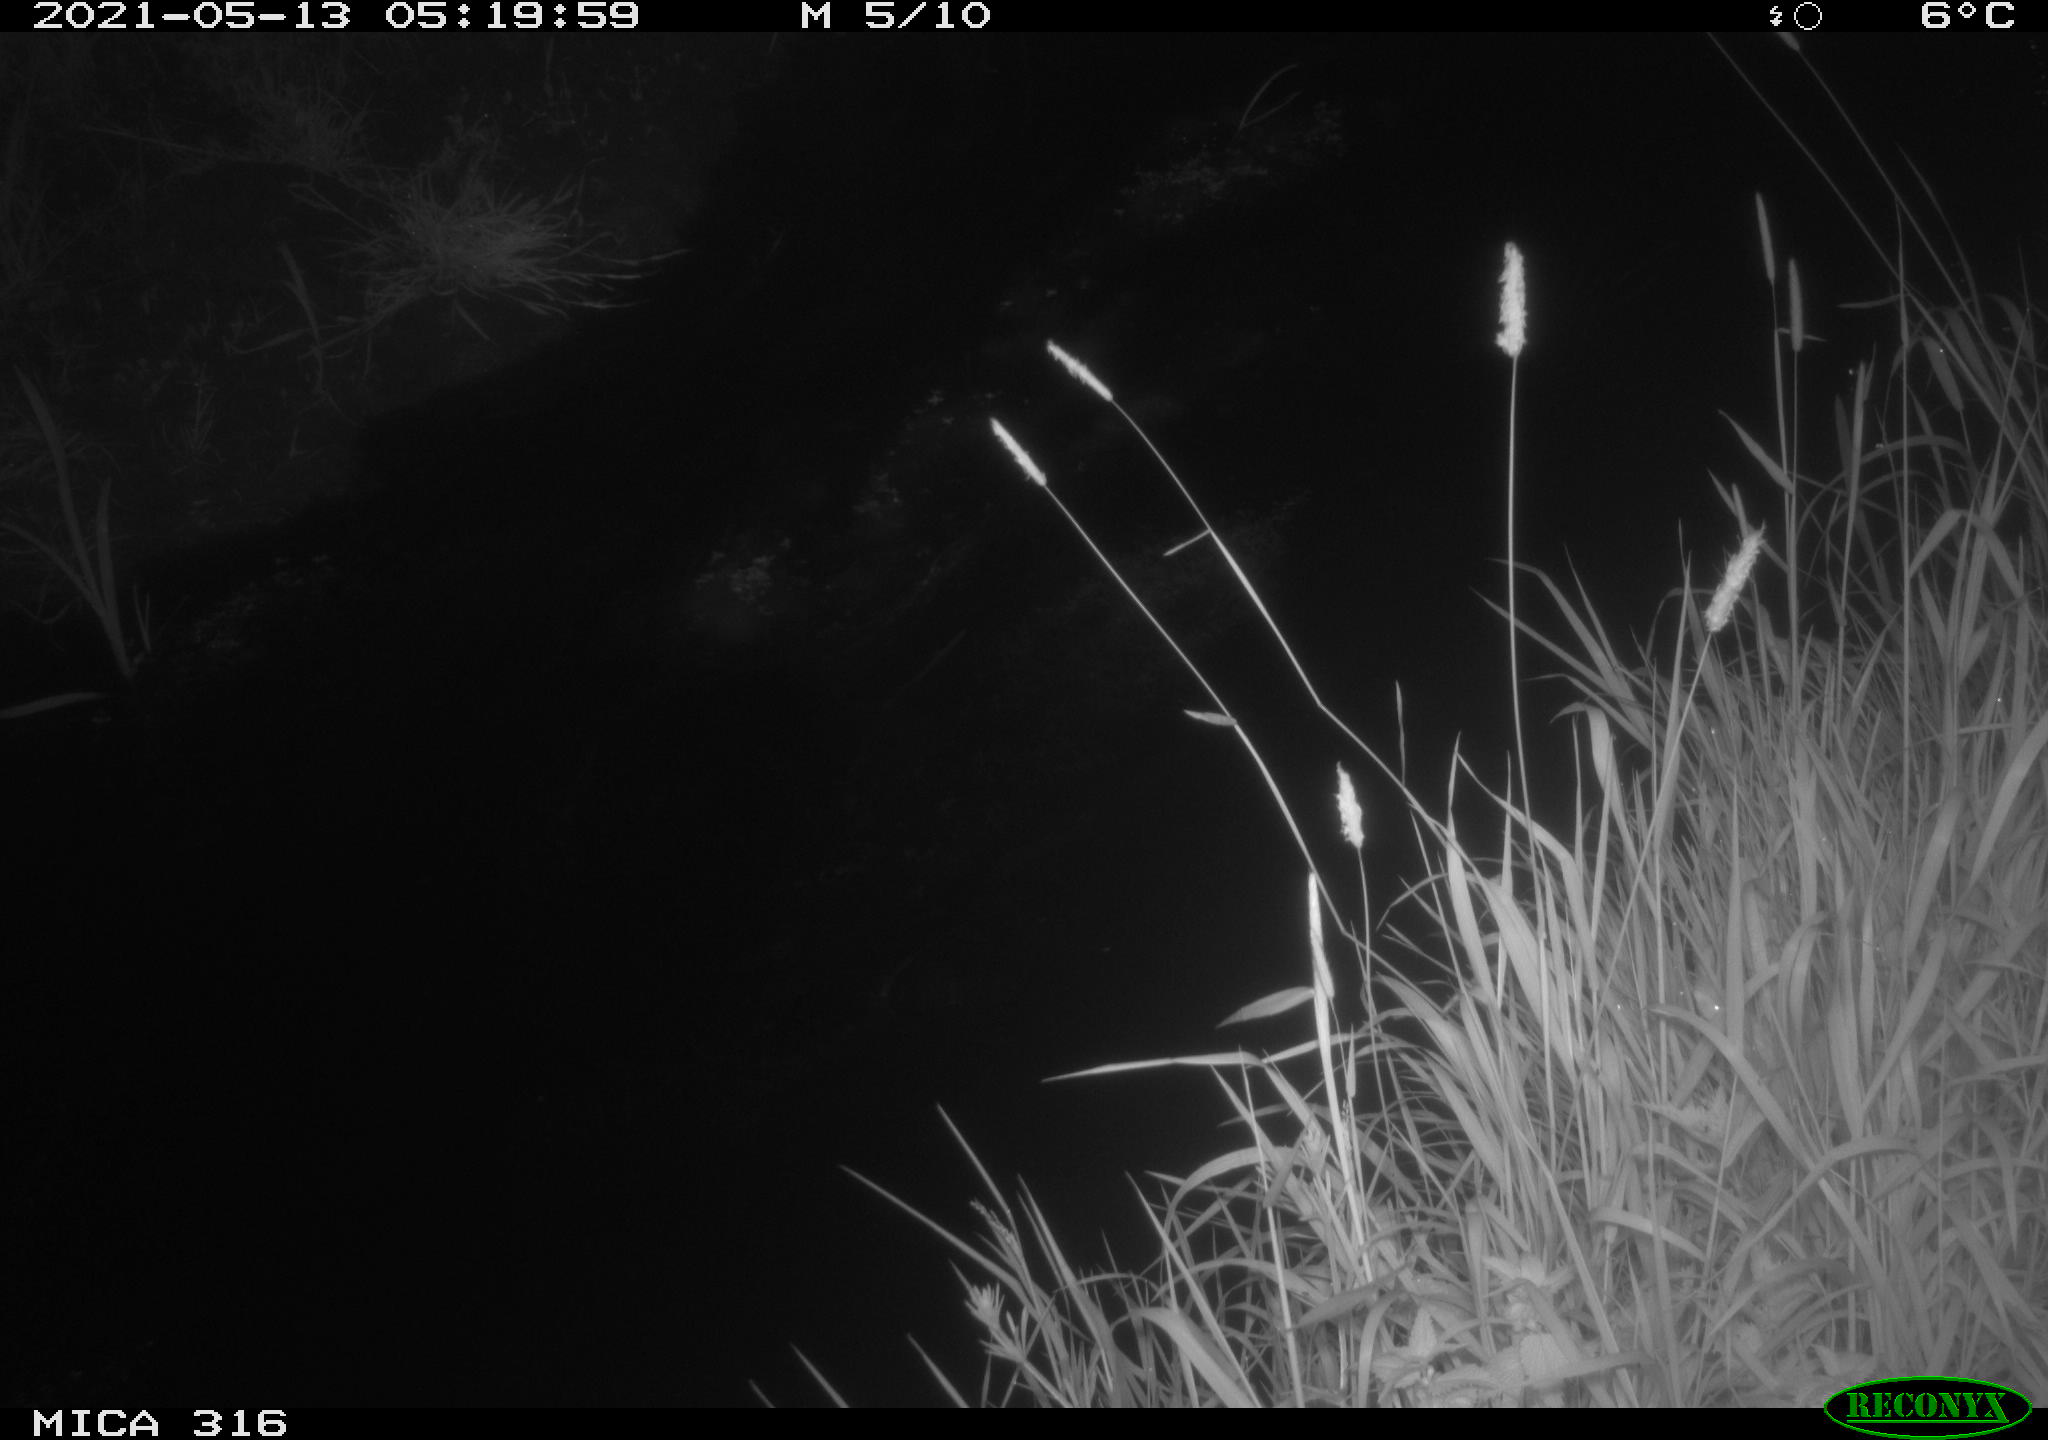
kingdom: Animalia
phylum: Chordata
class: Aves
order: Anseriformes
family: Anatidae
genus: Anas
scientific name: Anas platyrhynchos
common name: Mallard
